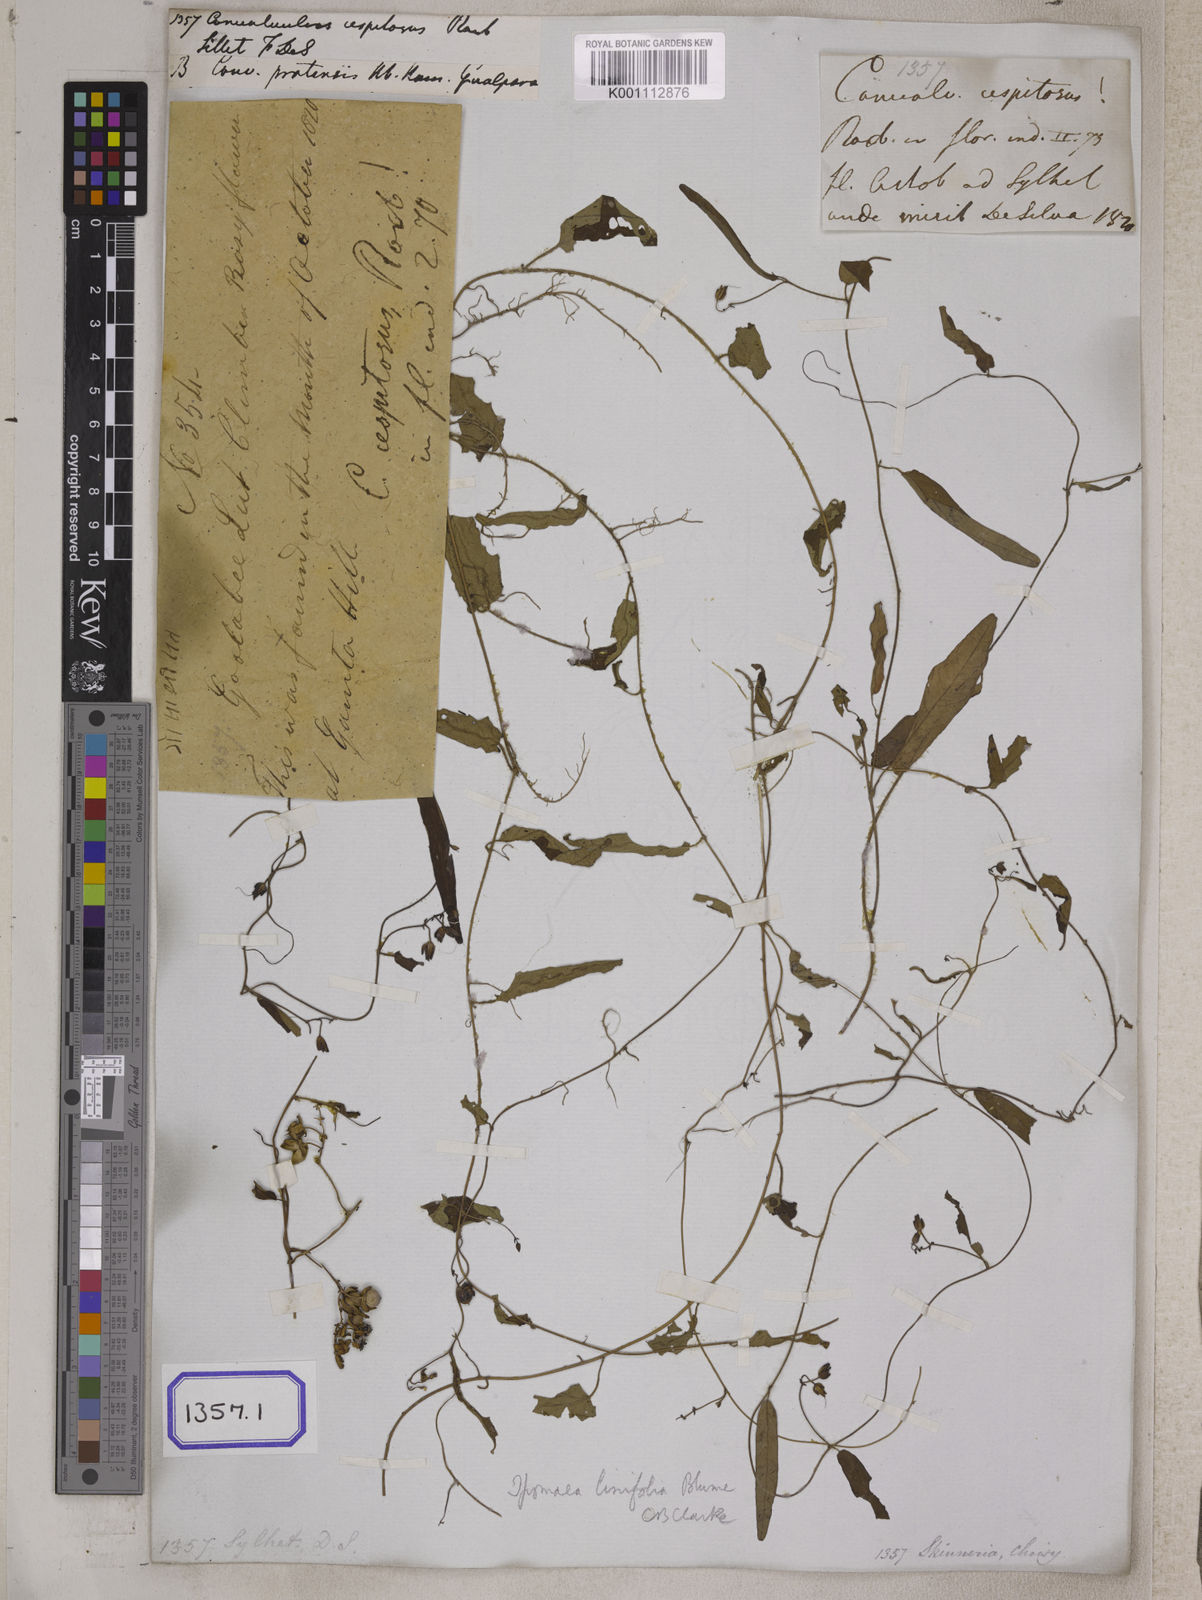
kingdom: Plantae
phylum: Tracheophyta
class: Magnoliopsida
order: Solanales
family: Convolvulaceae
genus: Convolvulus
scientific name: Convolvulus libanoticus
